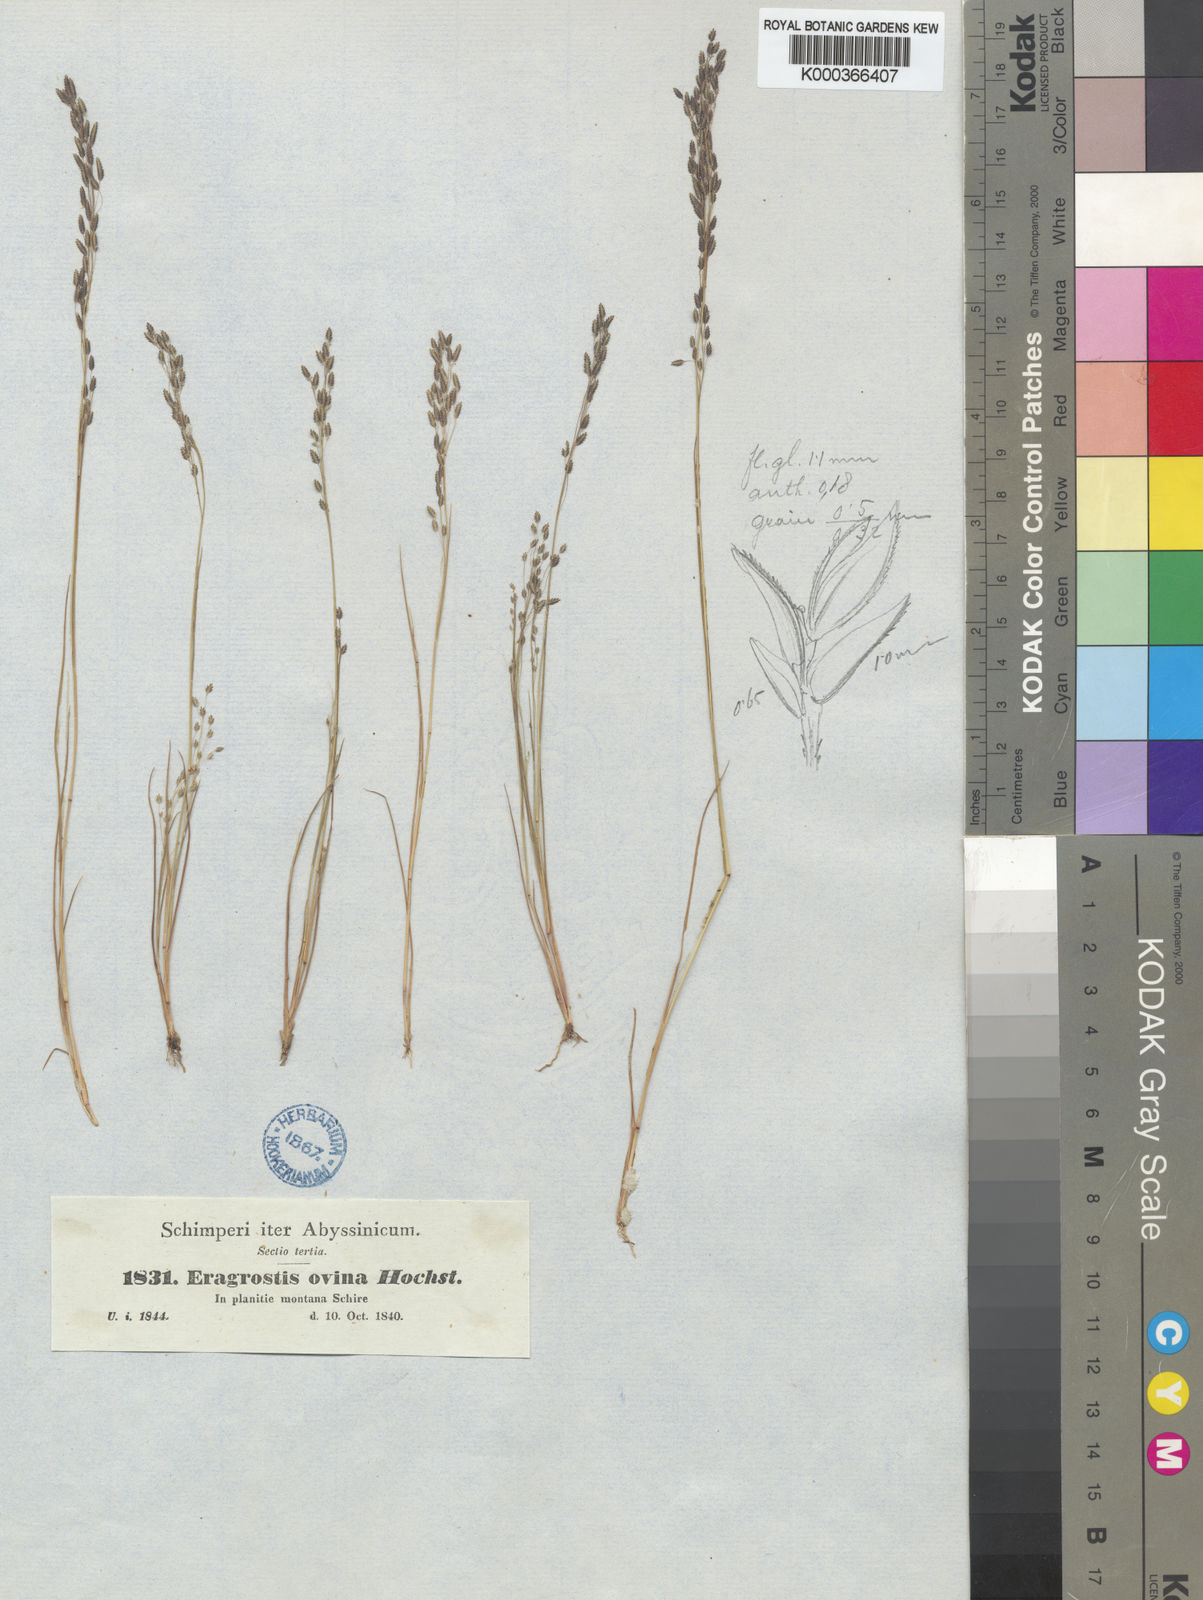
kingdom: Plantae
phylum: Tracheophyta
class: Liliopsida
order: Poales
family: Poaceae
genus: Eragrostis
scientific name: Eragrostis gangetica
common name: Slimflower lovegrass
